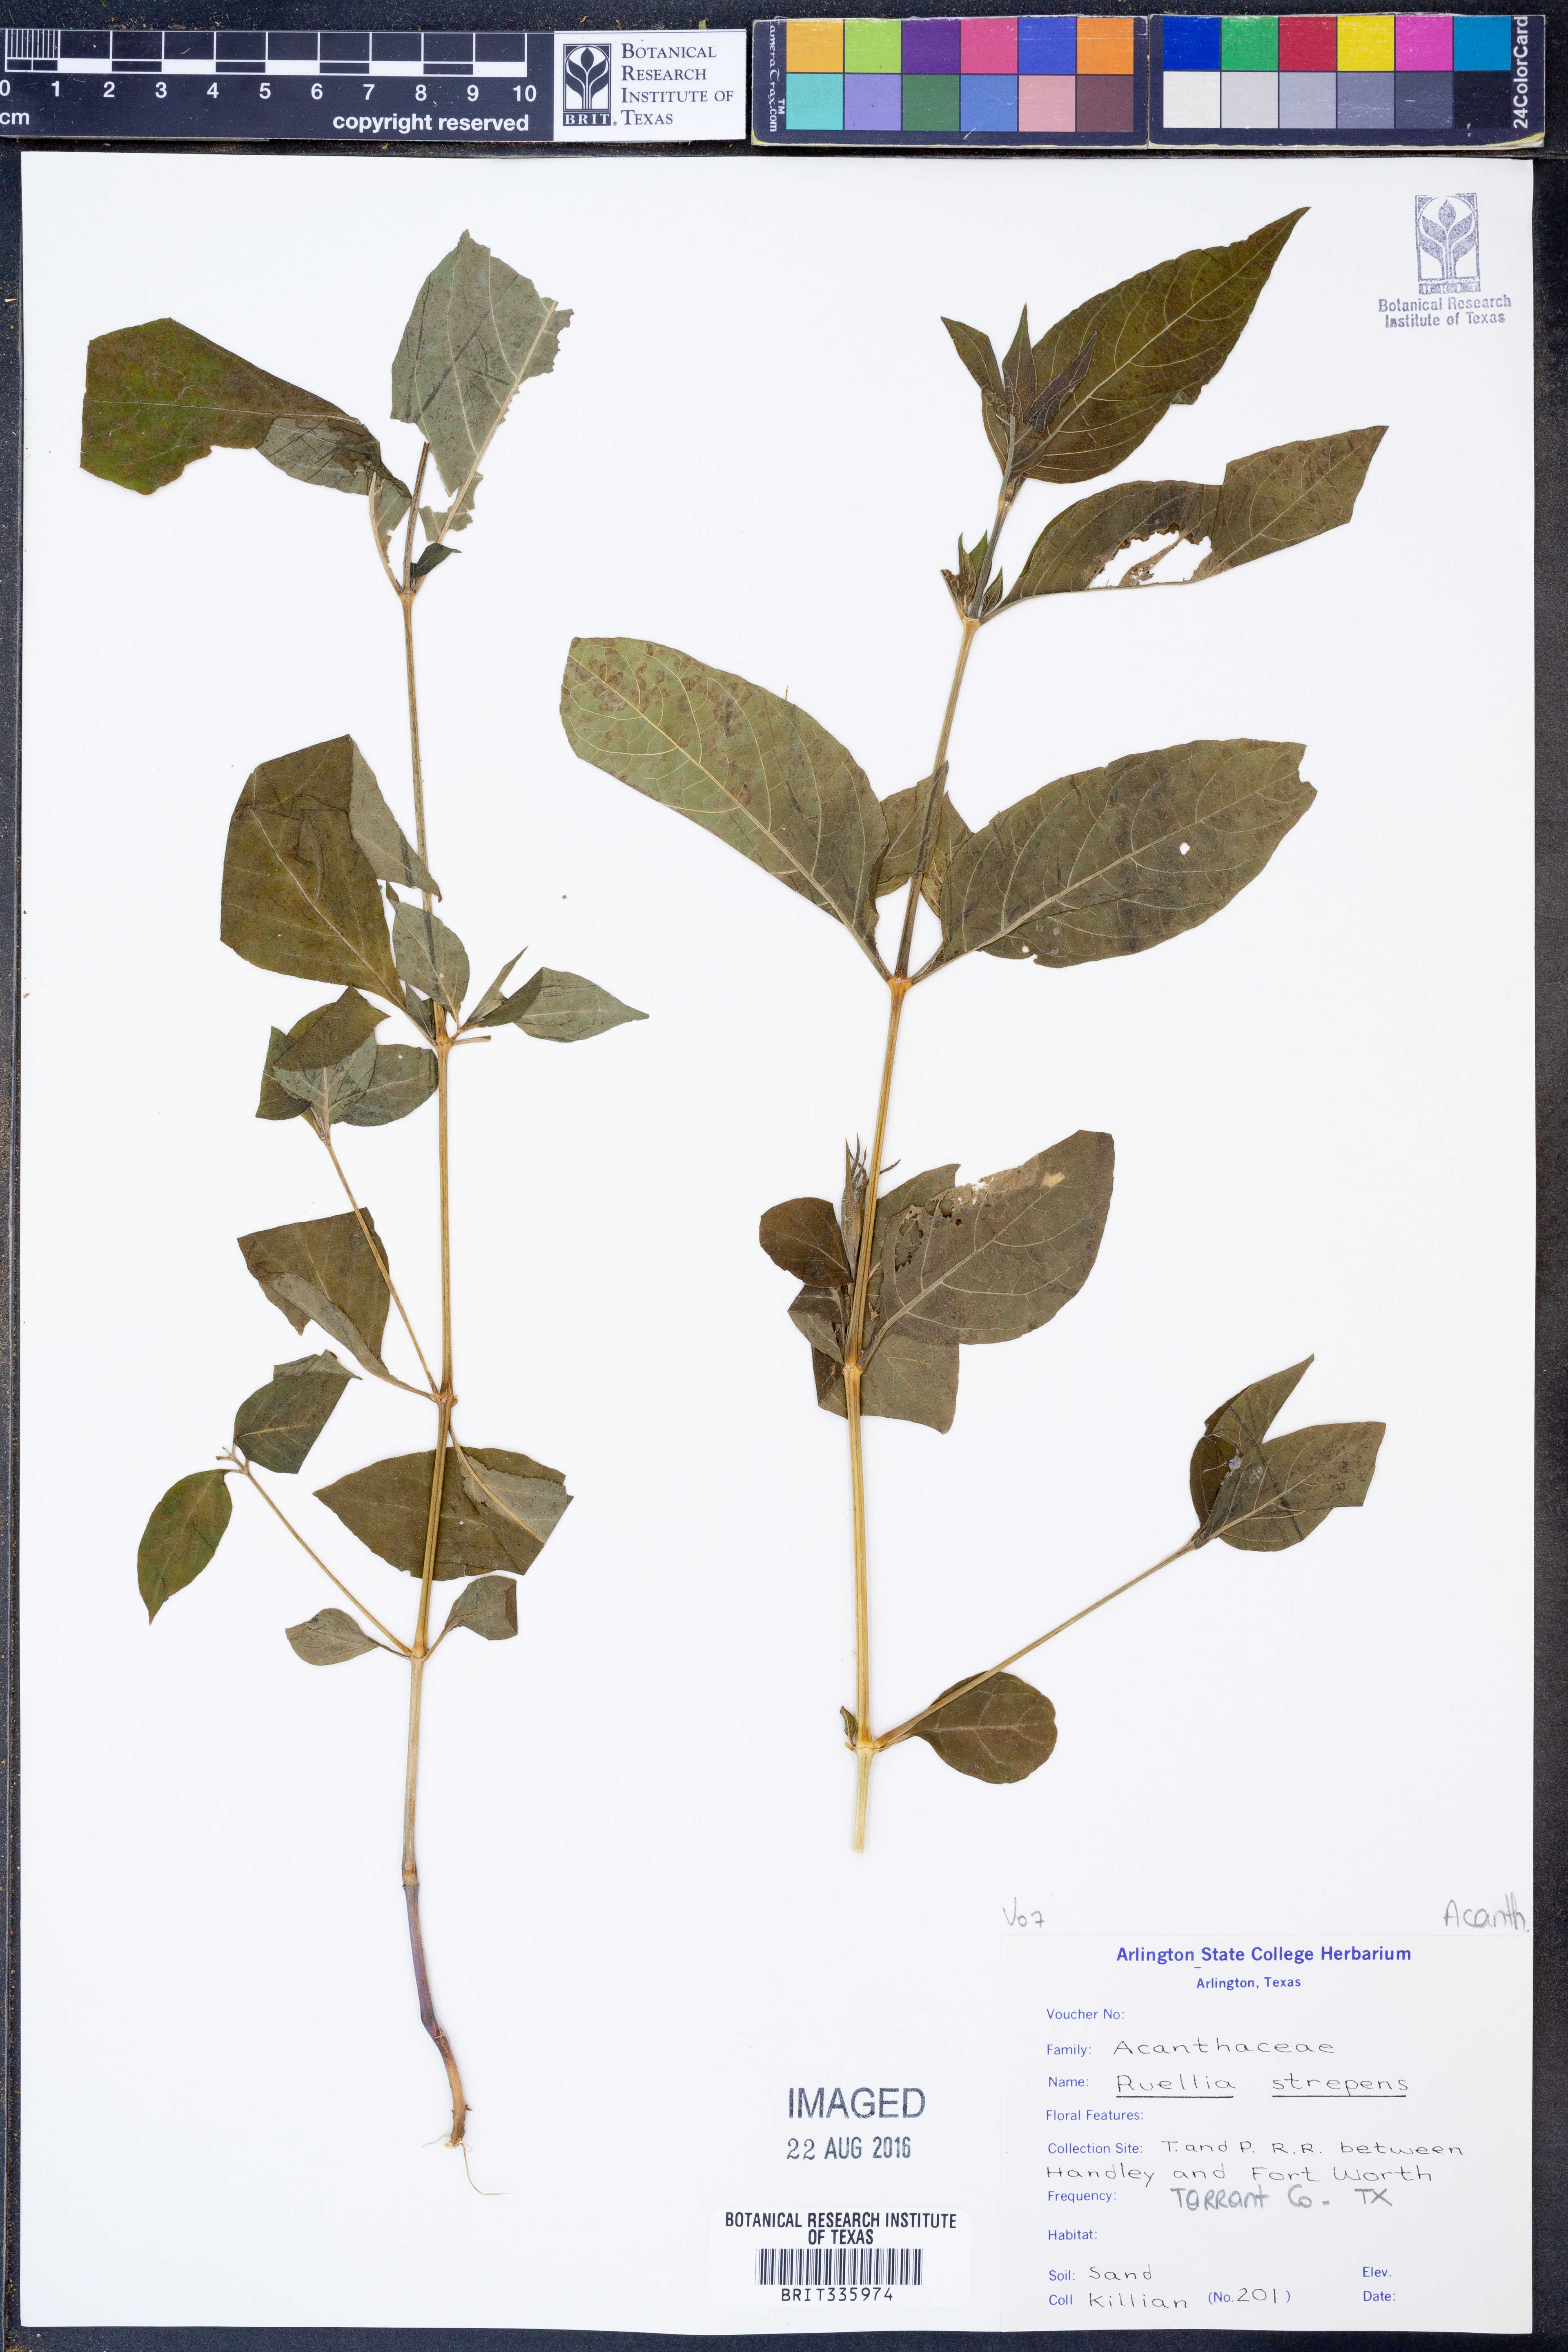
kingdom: Plantae
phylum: Tracheophyta
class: Magnoliopsida
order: Lamiales
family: Acanthaceae
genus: Ruellia
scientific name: Ruellia strepens
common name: Limestone wild petunia
